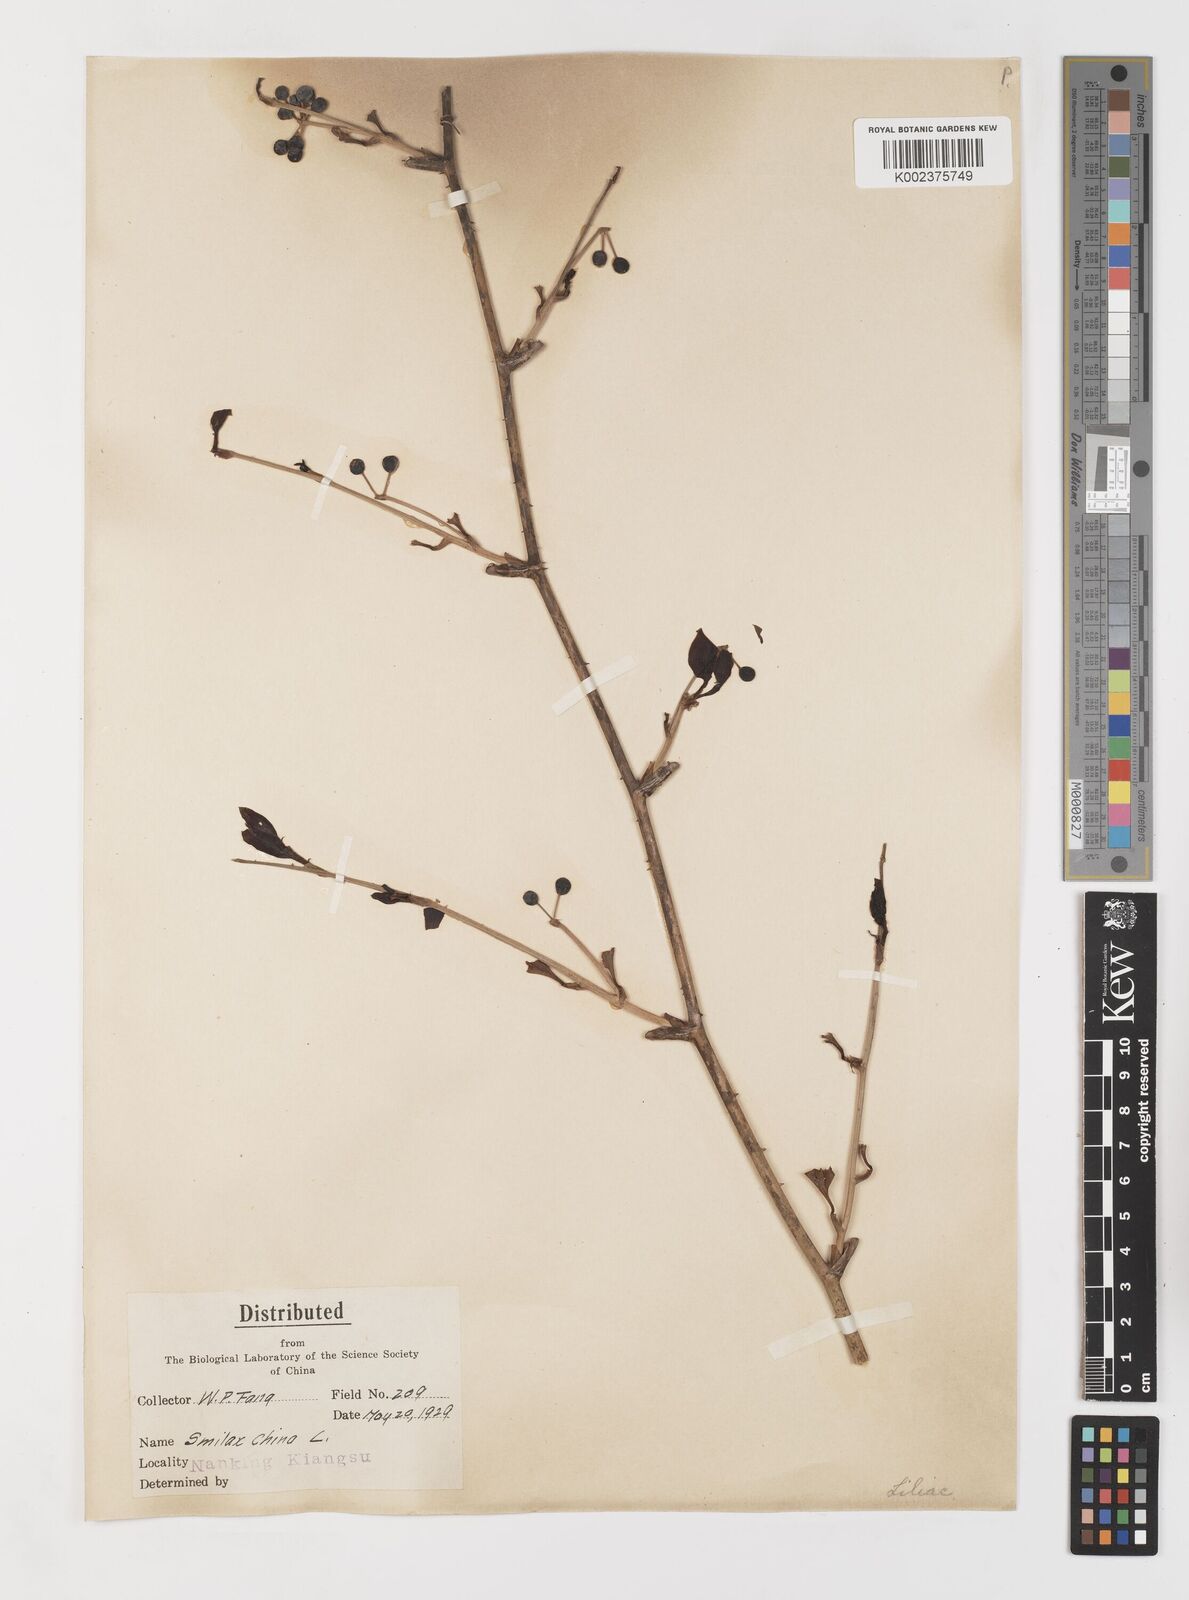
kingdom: Plantae
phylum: Tracheophyta
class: Liliopsida
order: Liliales
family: Smilacaceae
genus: Smilax
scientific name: Smilax china
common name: Chinaroot
